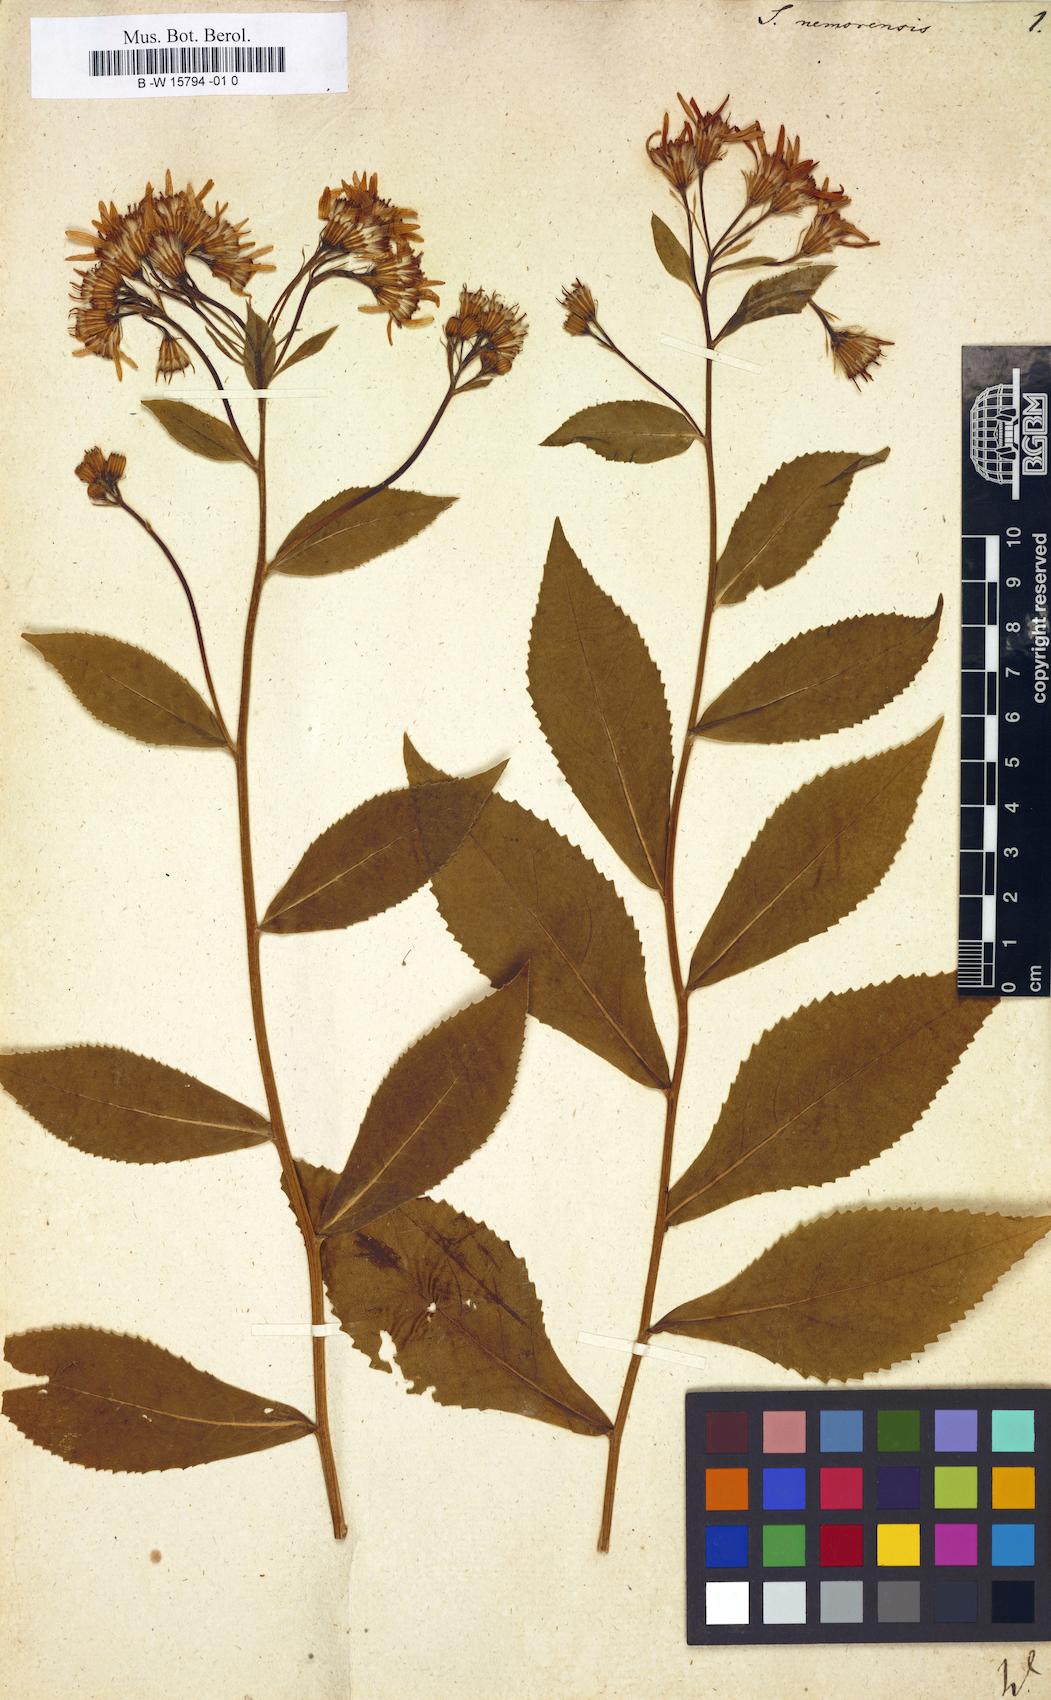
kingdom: Plantae
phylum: Tracheophyta
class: Magnoliopsida
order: Asterales
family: Asteraceae
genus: Senecio
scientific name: Senecio nemorensis
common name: Alpine ragwort
